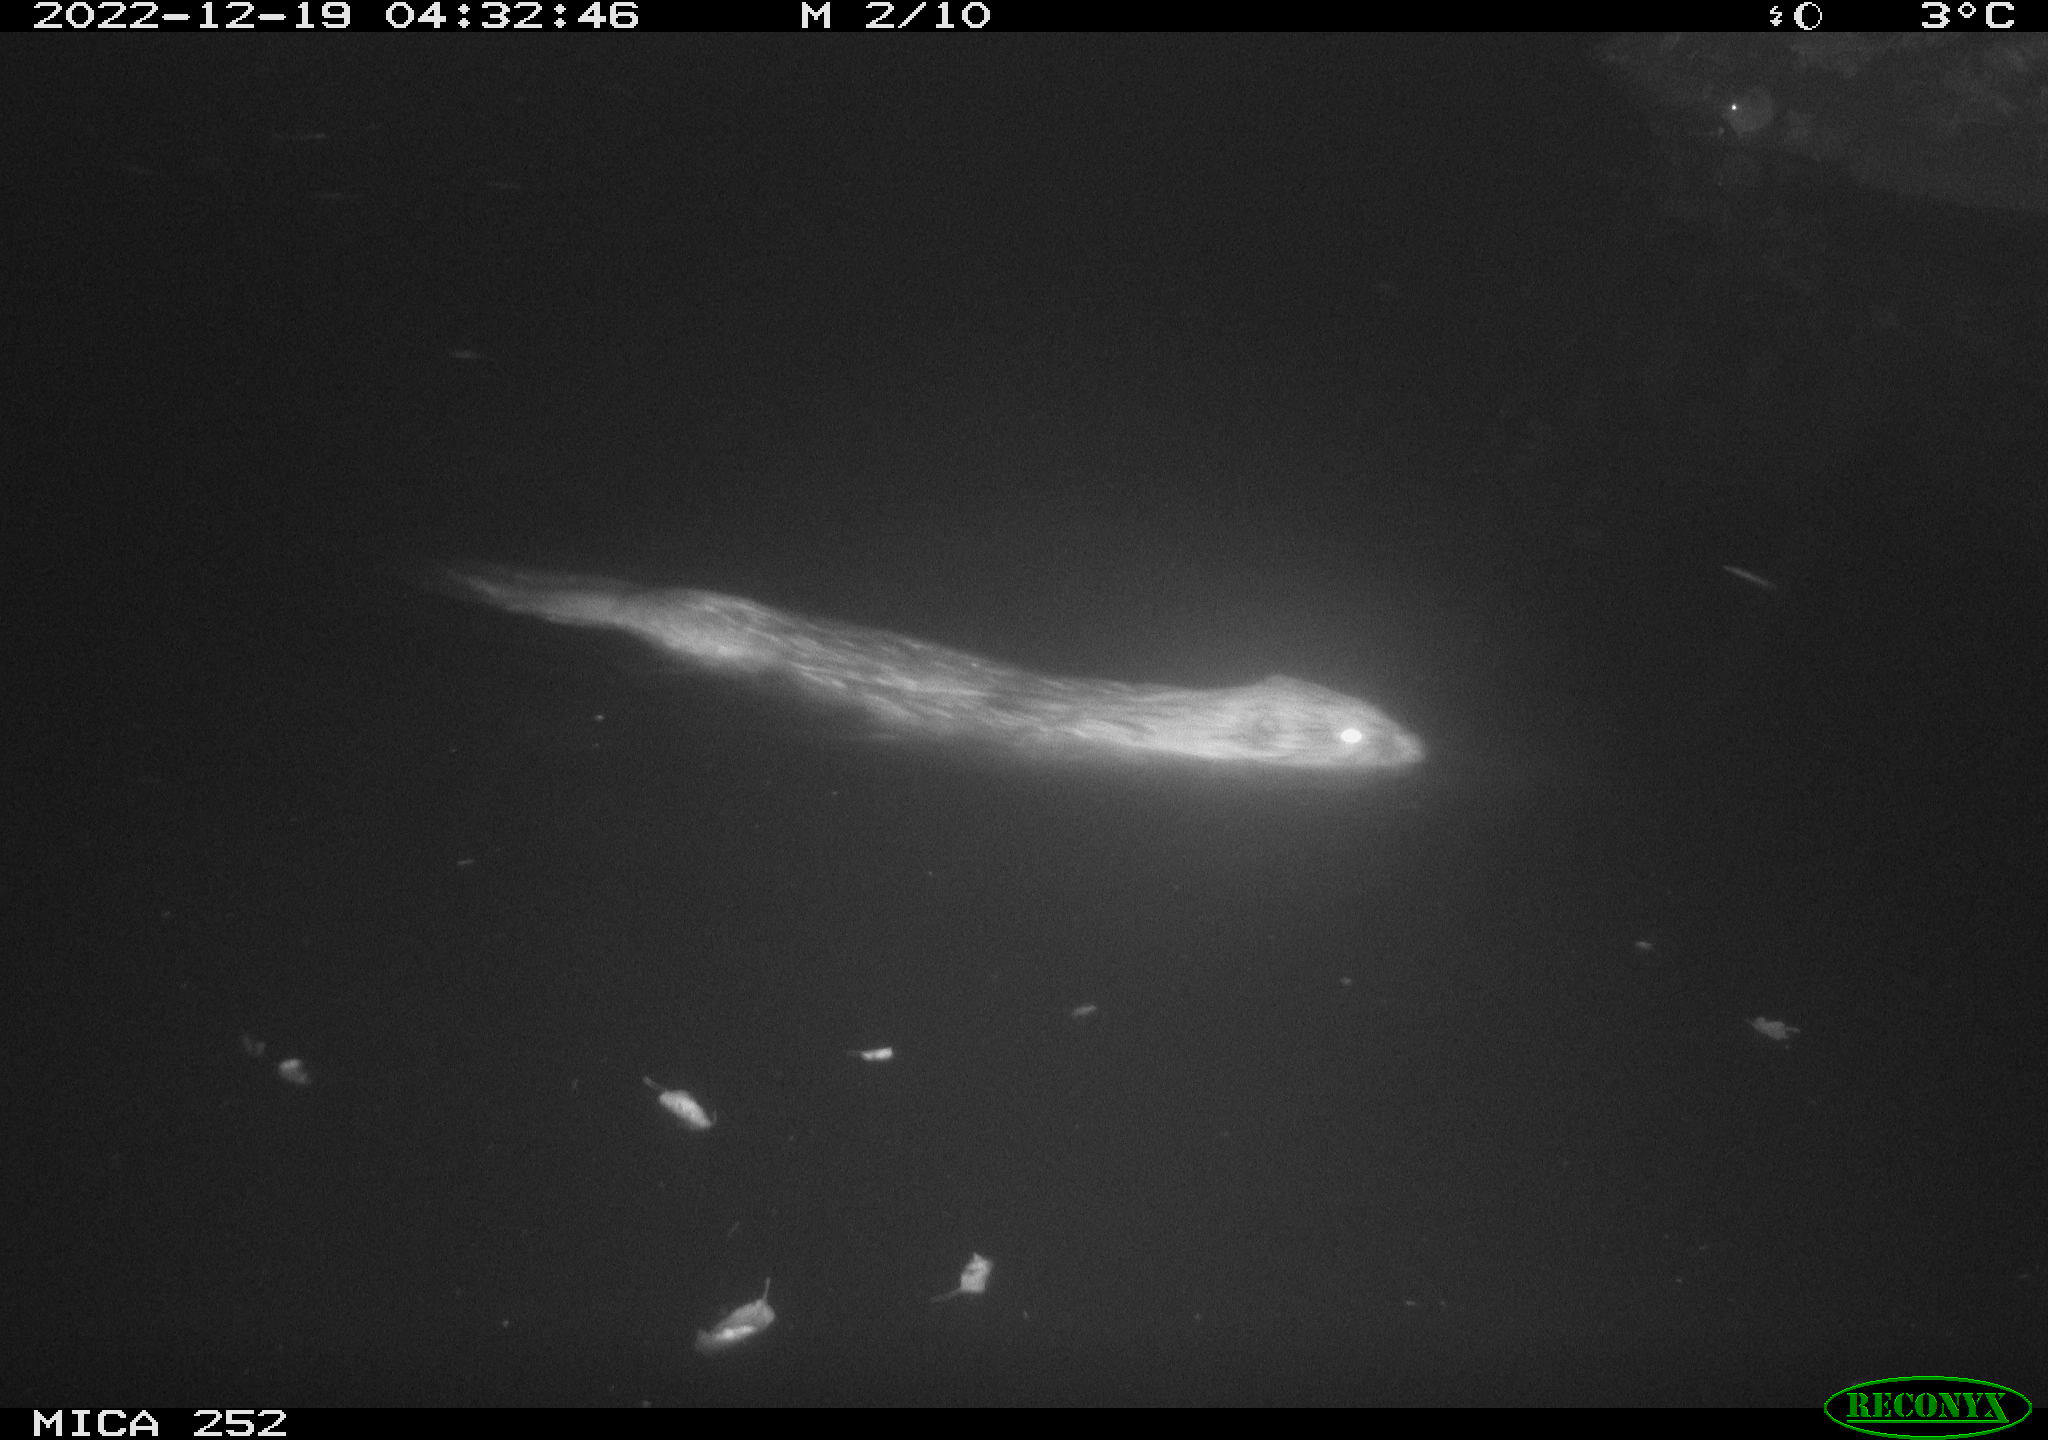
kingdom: Animalia
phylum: Chordata
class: Mammalia
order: Rodentia
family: Castoridae
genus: Castor
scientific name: Castor fiber
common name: Eurasian beaver
